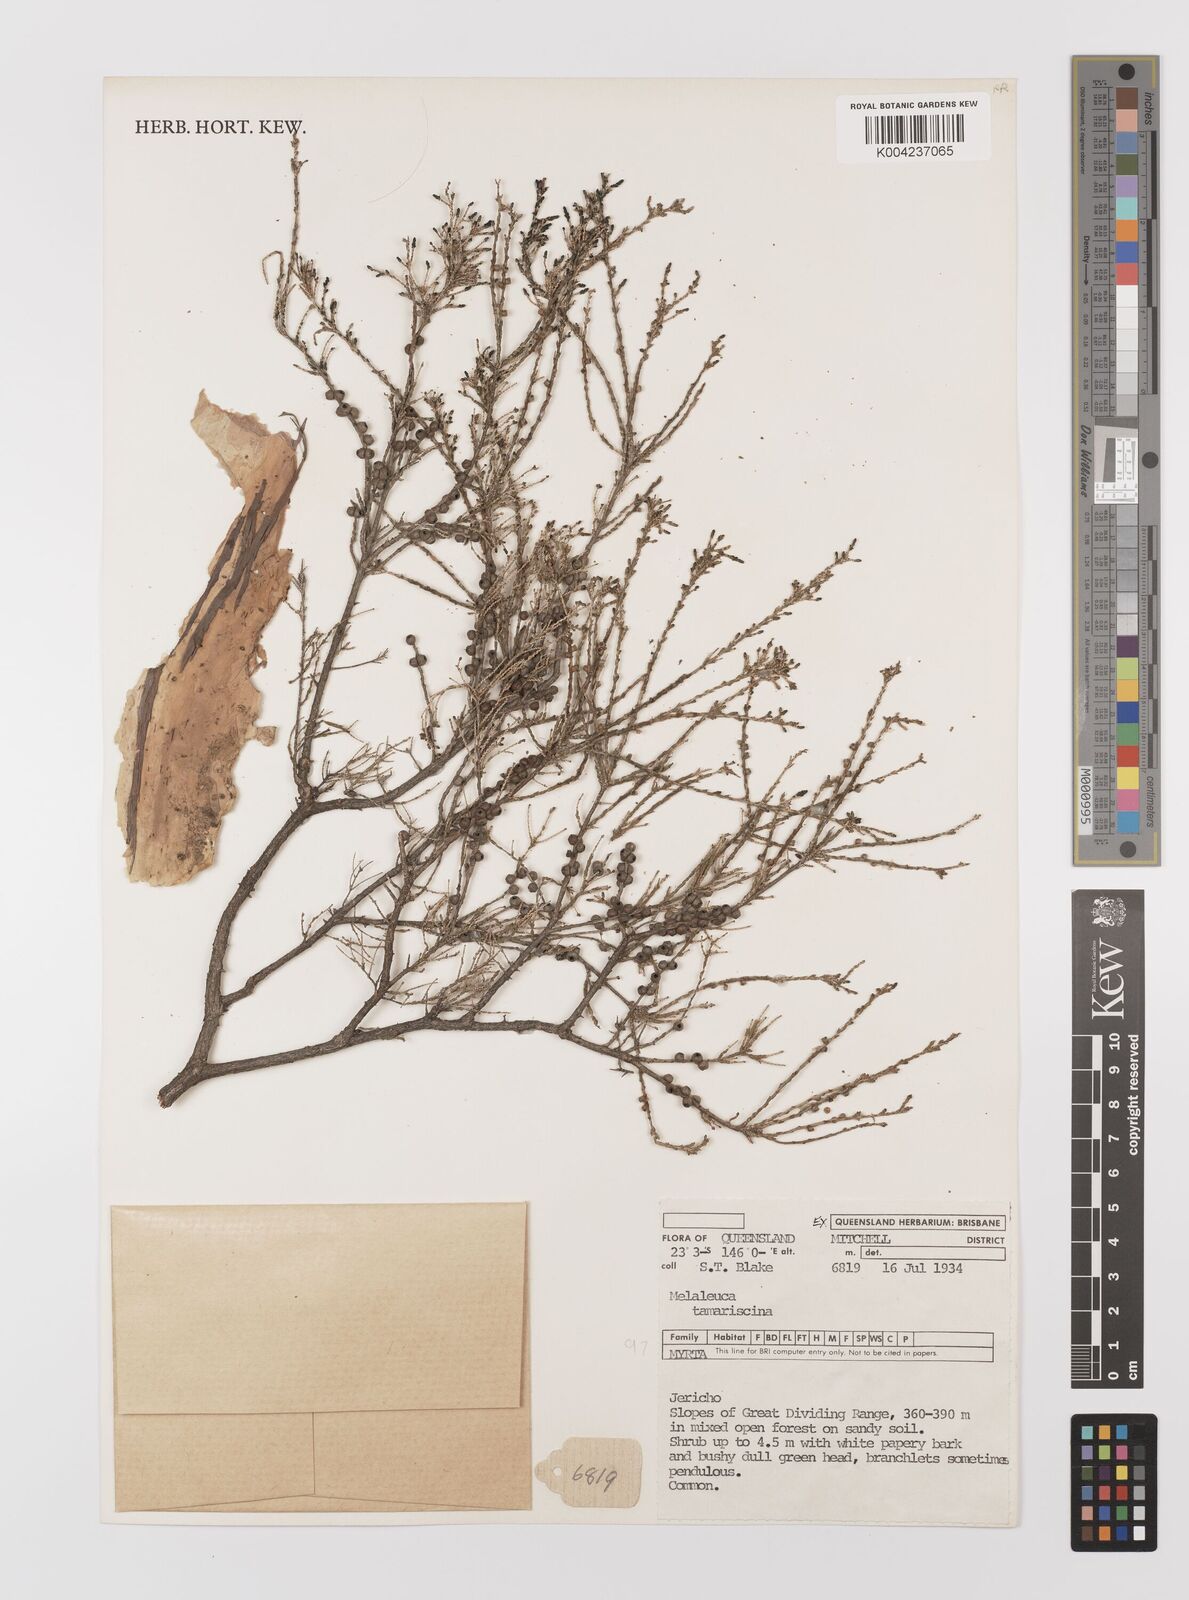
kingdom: Plantae
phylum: Tracheophyta
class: Magnoliopsida
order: Myrtales
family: Myrtaceae
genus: Melaleuca
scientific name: Melaleuca tamariscina
